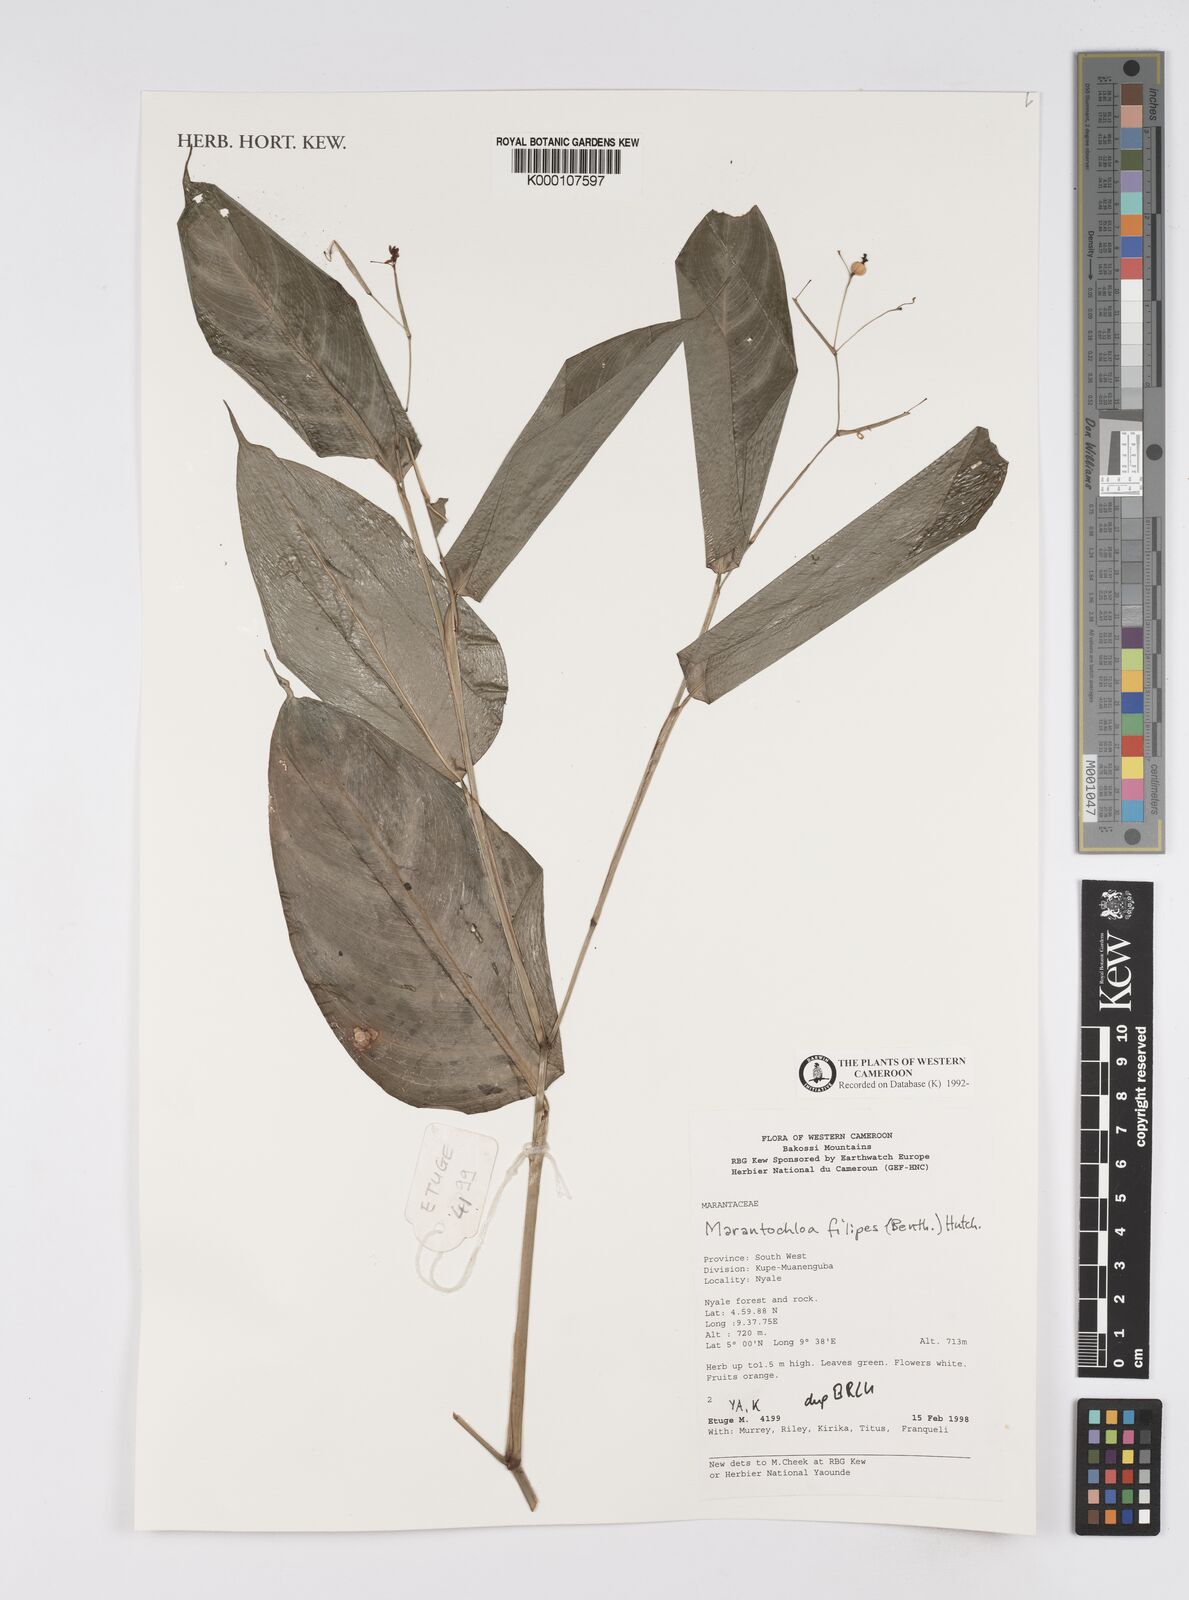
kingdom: Plantae
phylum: Tracheophyta
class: Liliopsida
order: Zingiberales
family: Marantaceae
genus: Marantochloa
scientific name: Marantochloa filipes
